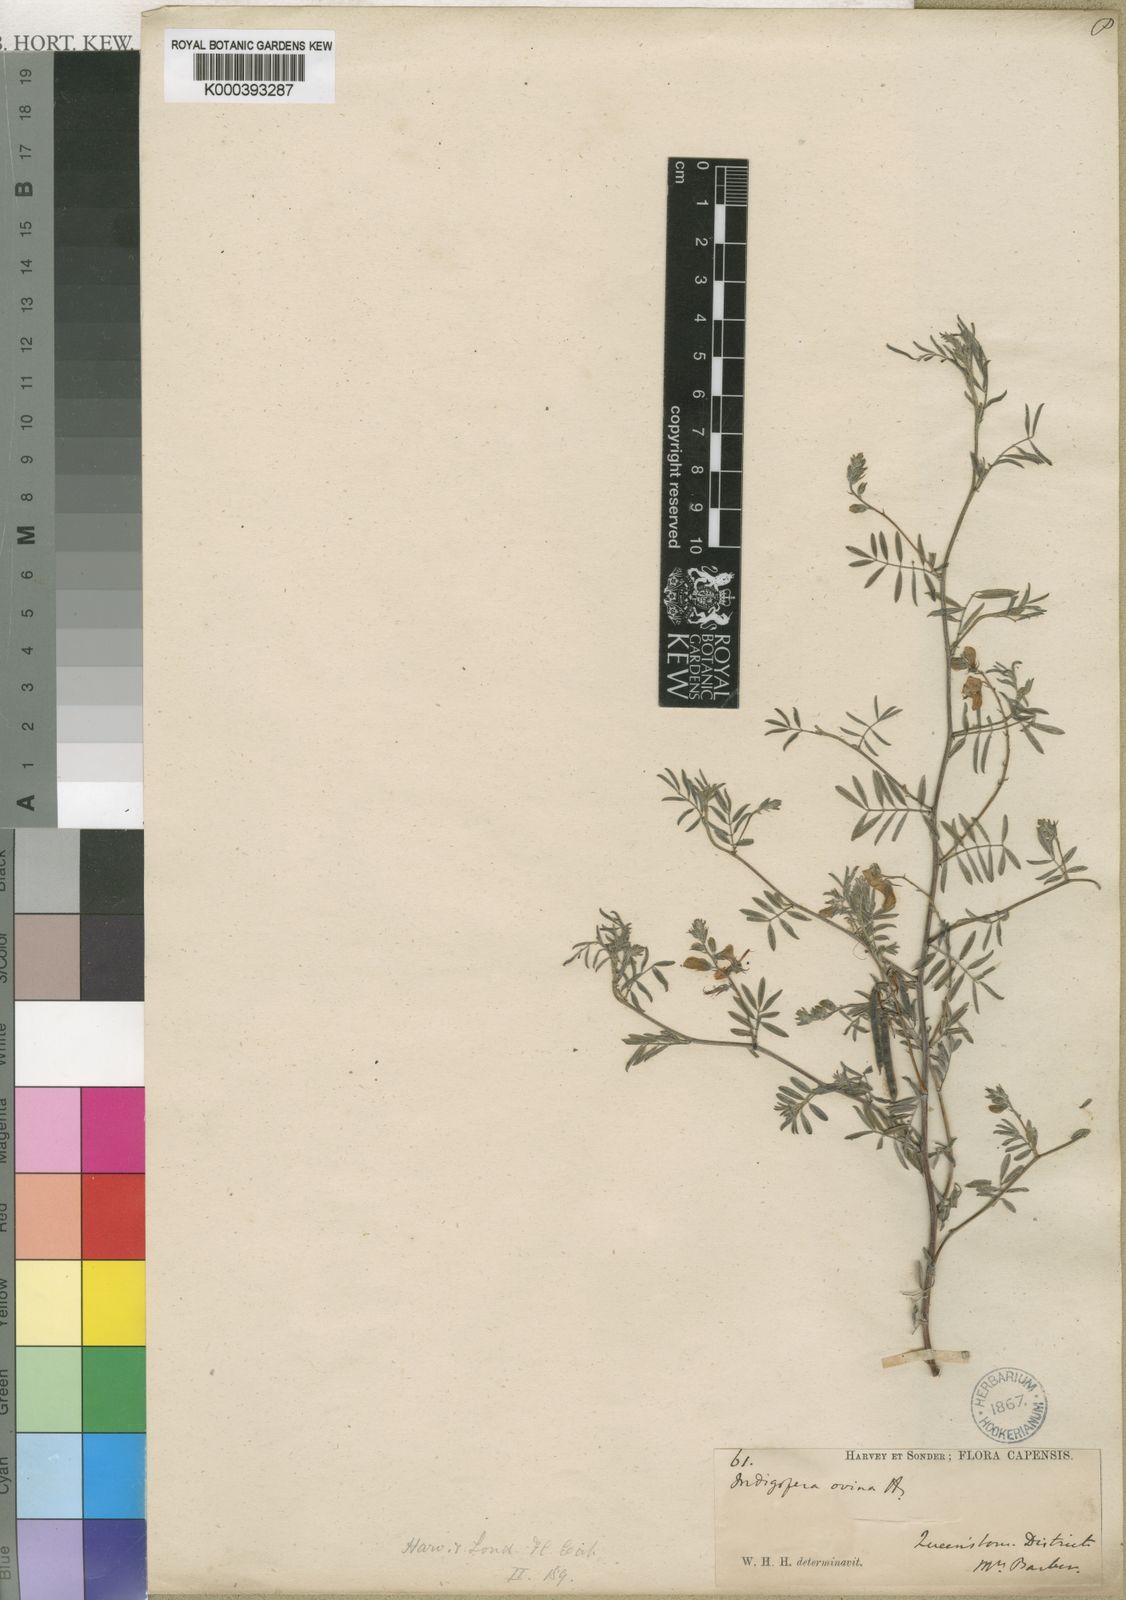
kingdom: Plantae
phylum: Tracheophyta
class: Magnoliopsida
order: Fabales
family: Fabaceae
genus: Indigofera
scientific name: Indigofera ovina
